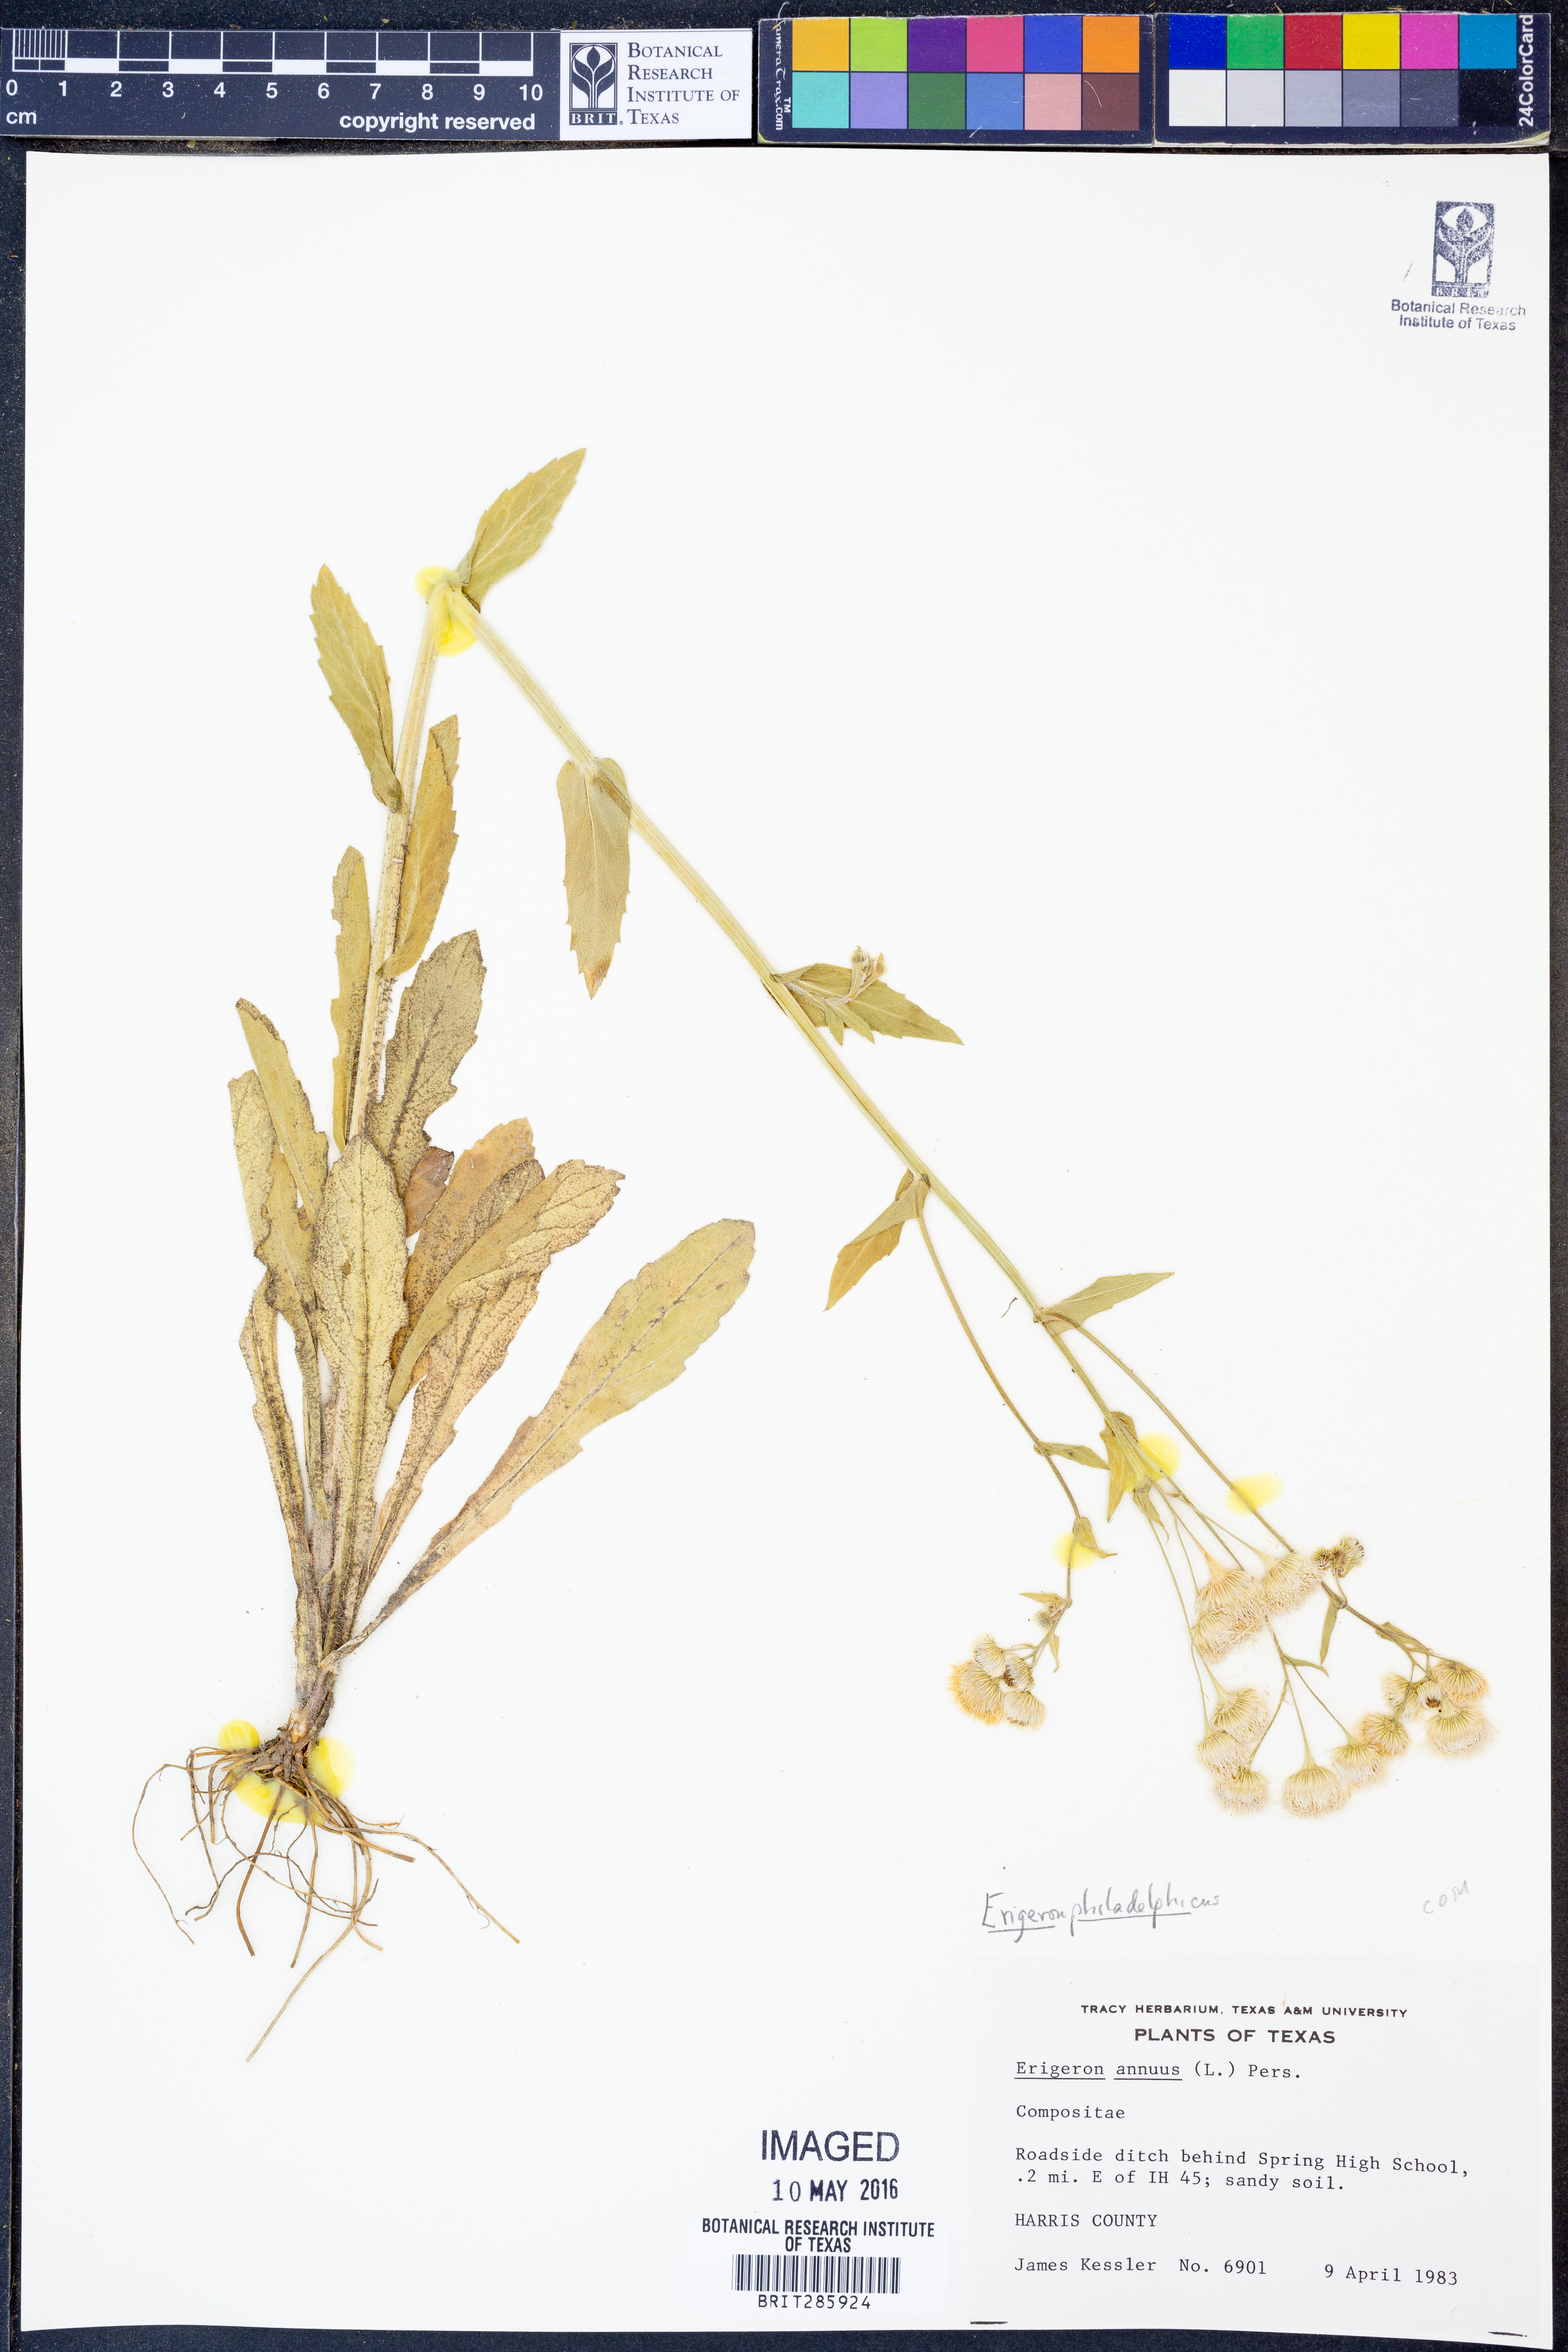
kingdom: Plantae
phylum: Tracheophyta
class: Magnoliopsida
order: Asterales
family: Asteraceae
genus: Erigeron
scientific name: Erigeron philadelphicus
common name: Robin's-plantain
